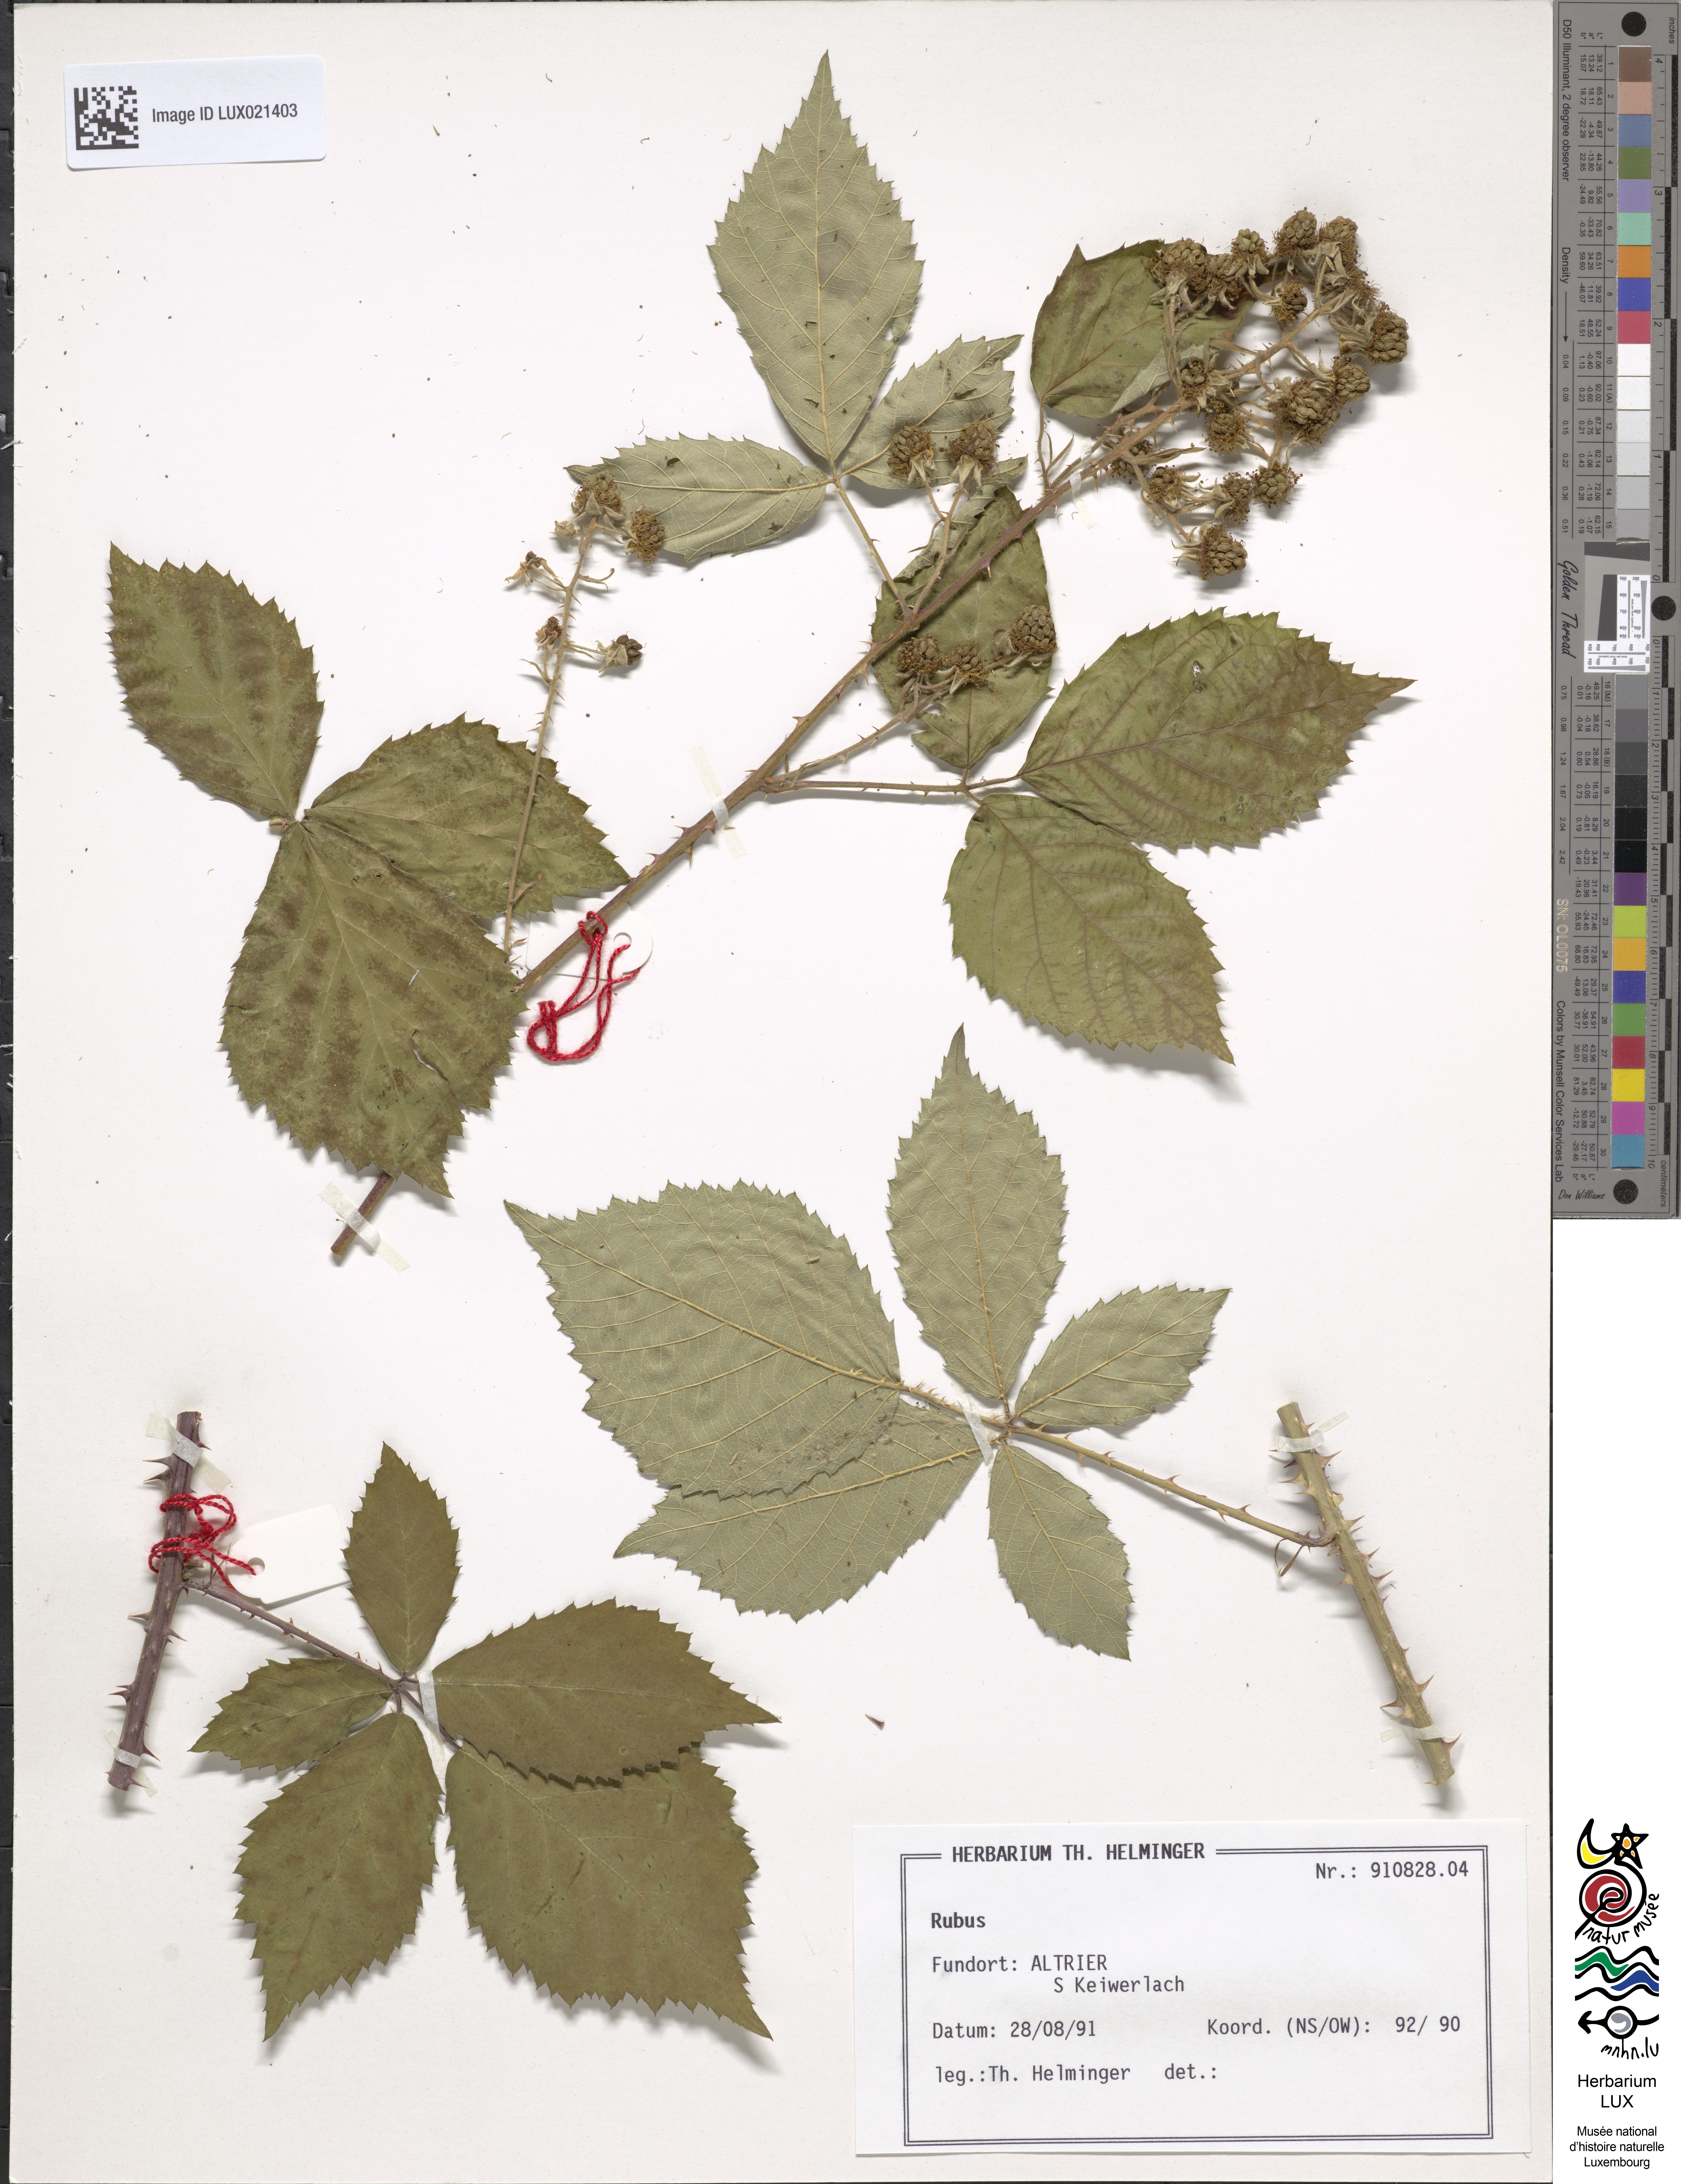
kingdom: Plantae
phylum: Tracheophyta
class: Magnoliopsida
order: Rosales
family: Rosaceae
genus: Rubus
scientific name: Rubus
